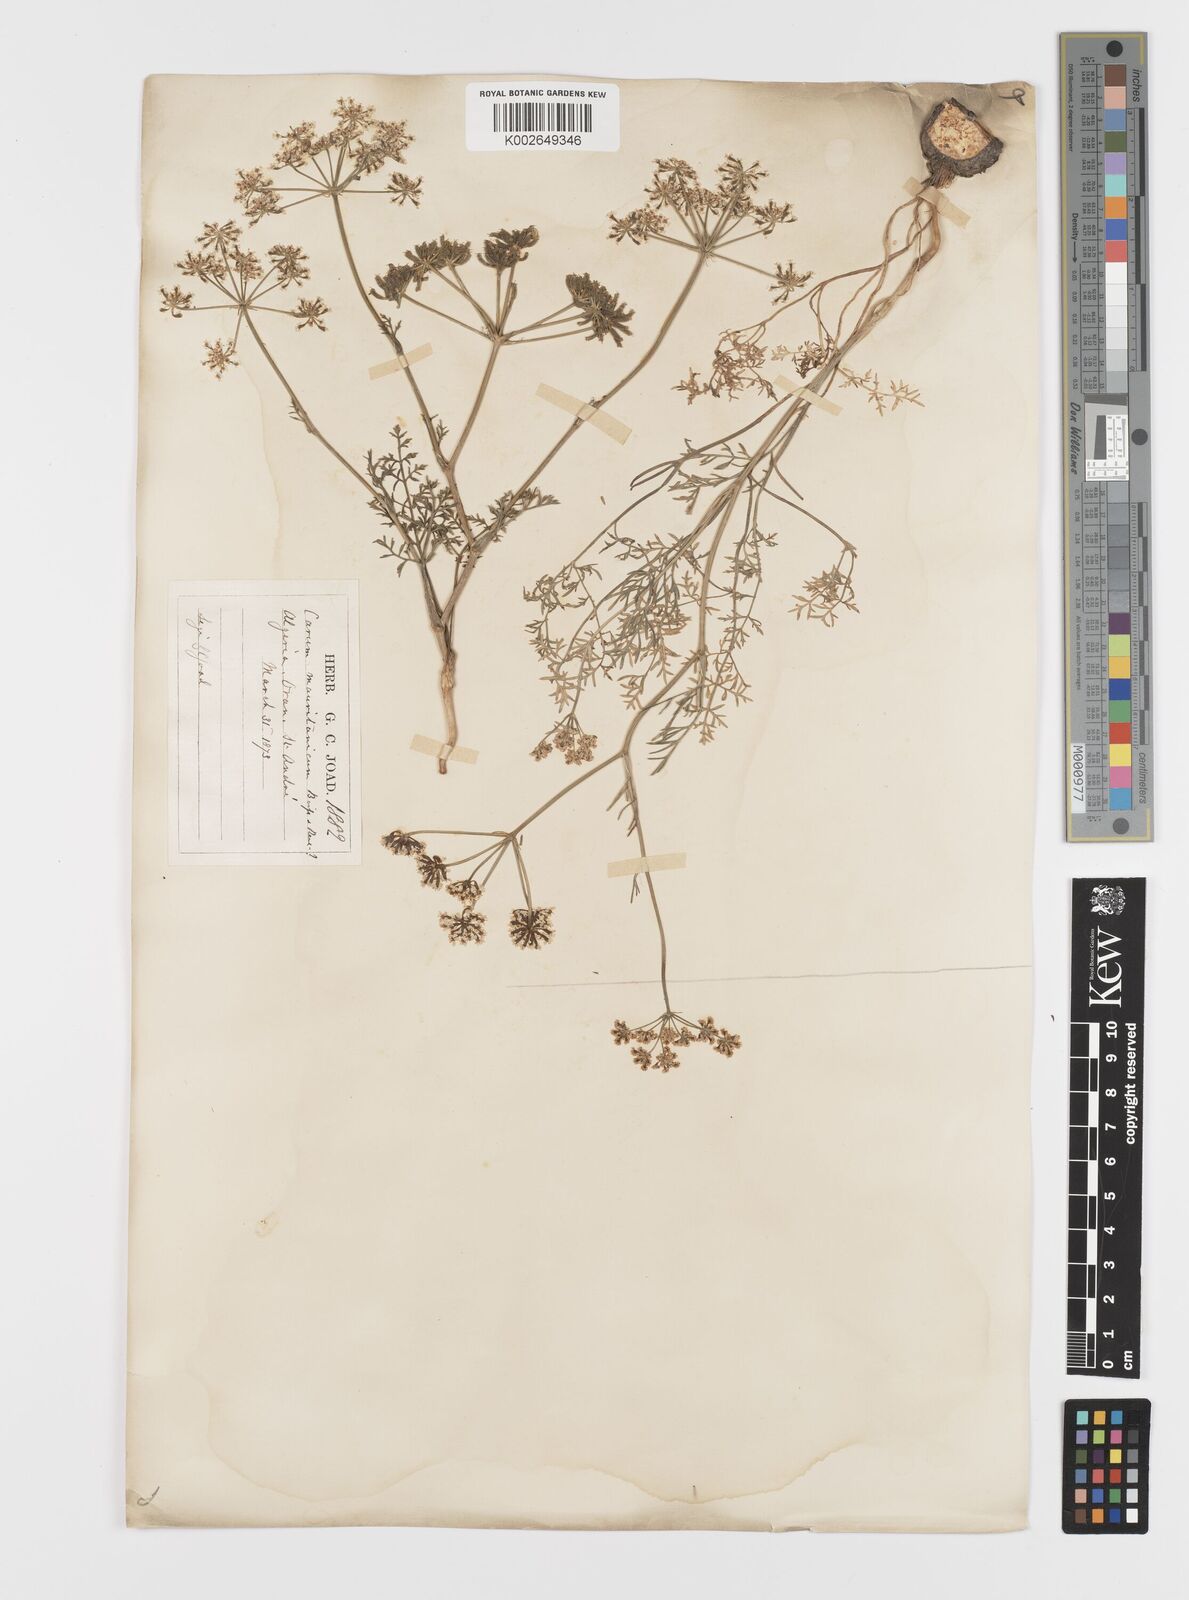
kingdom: Plantae
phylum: Tracheophyta
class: Magnoliopsida
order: Apiales
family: Apiaceae
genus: Bunium
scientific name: Bunium fontanesii
